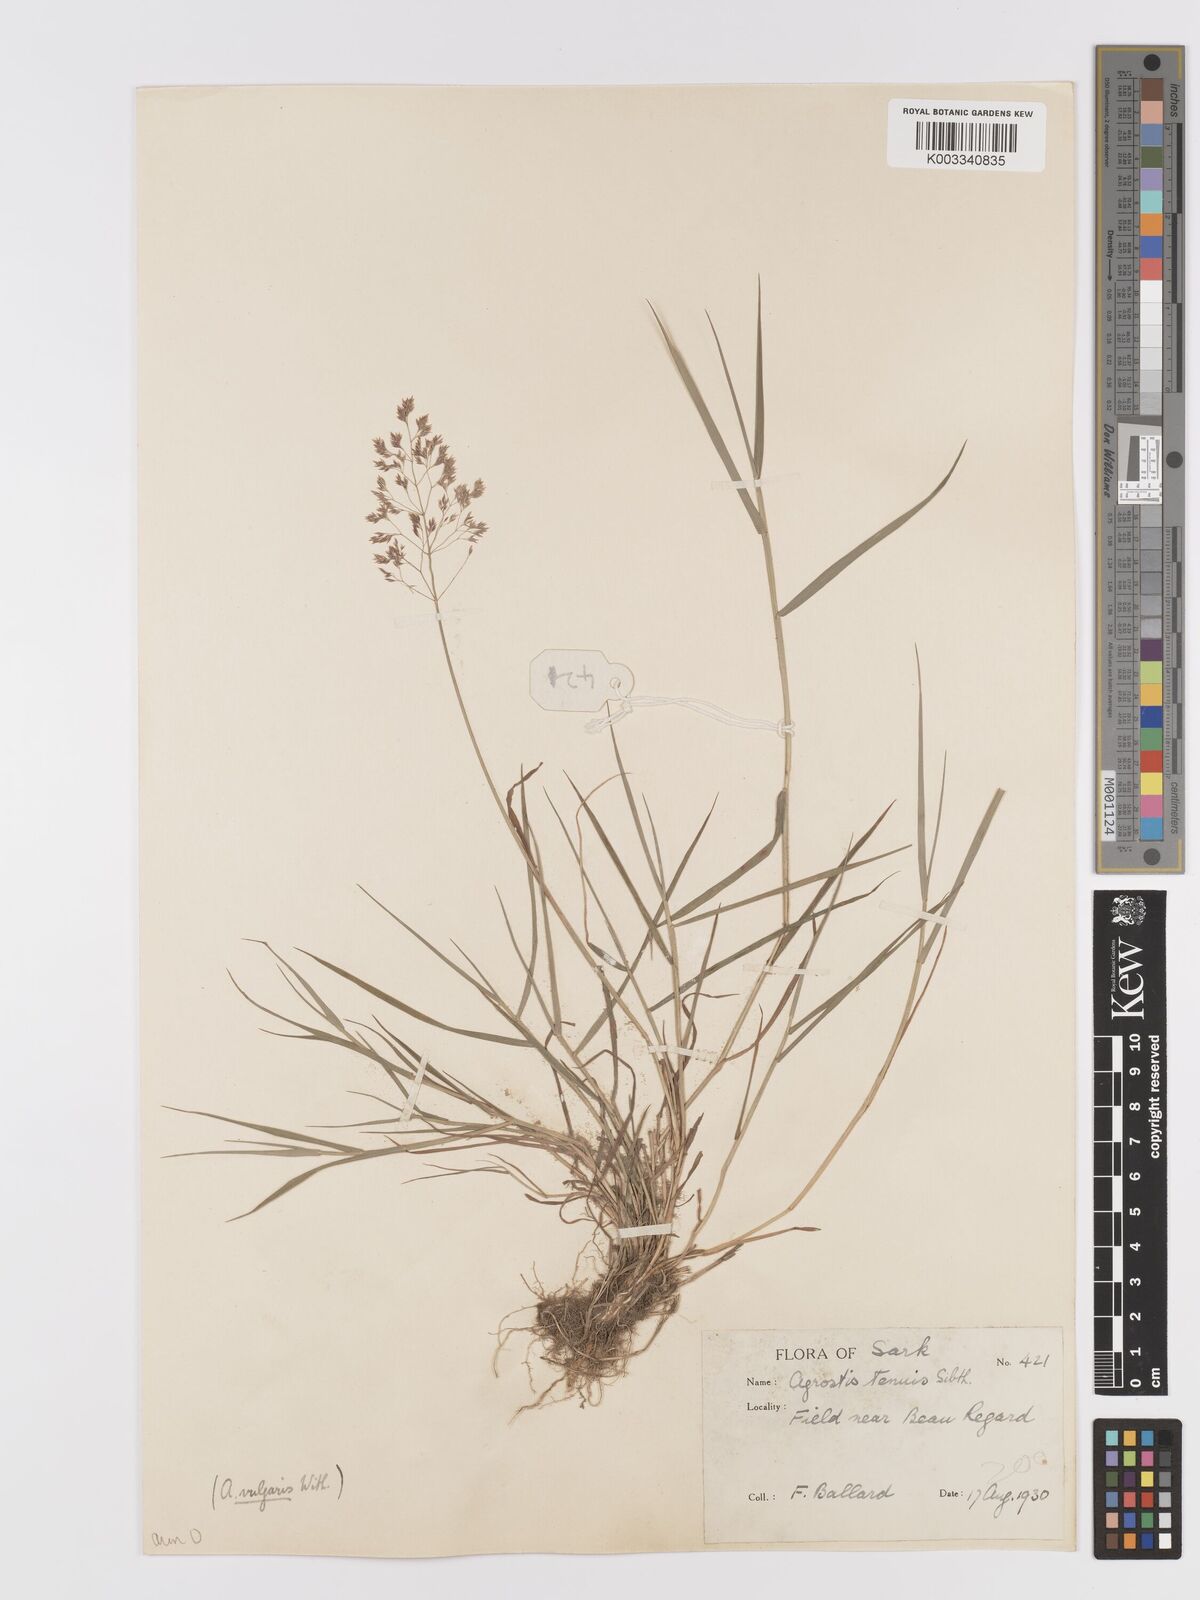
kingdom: Plantae
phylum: Tracheophyta
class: Liliopsida
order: Poales
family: Poaceae
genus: Agrostis
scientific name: Agrostis capillaris
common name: Colonial bentgrass
